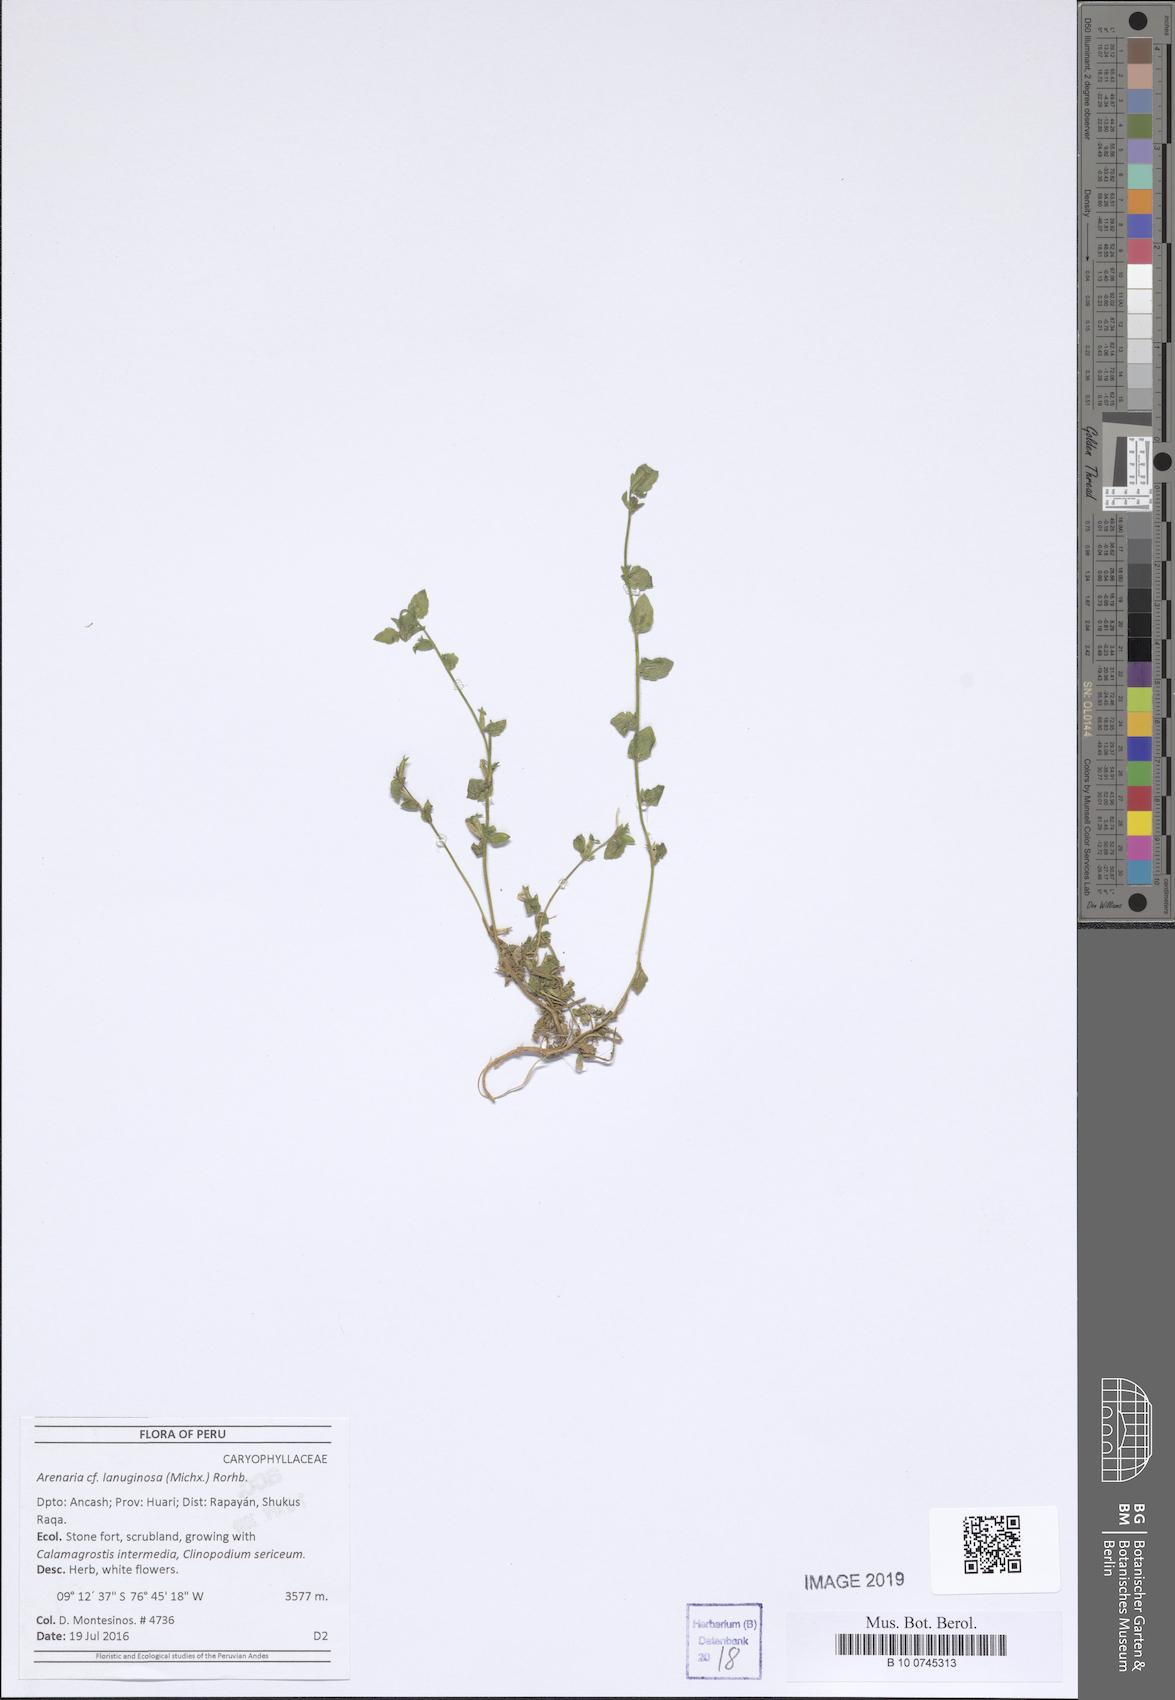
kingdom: Plantae
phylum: Tracheophyta
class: Magnoliopsida
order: Caryophyllales
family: Caryophyllaceae
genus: Arenaria
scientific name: Arenaria lanuginosa
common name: Spread sandwort
